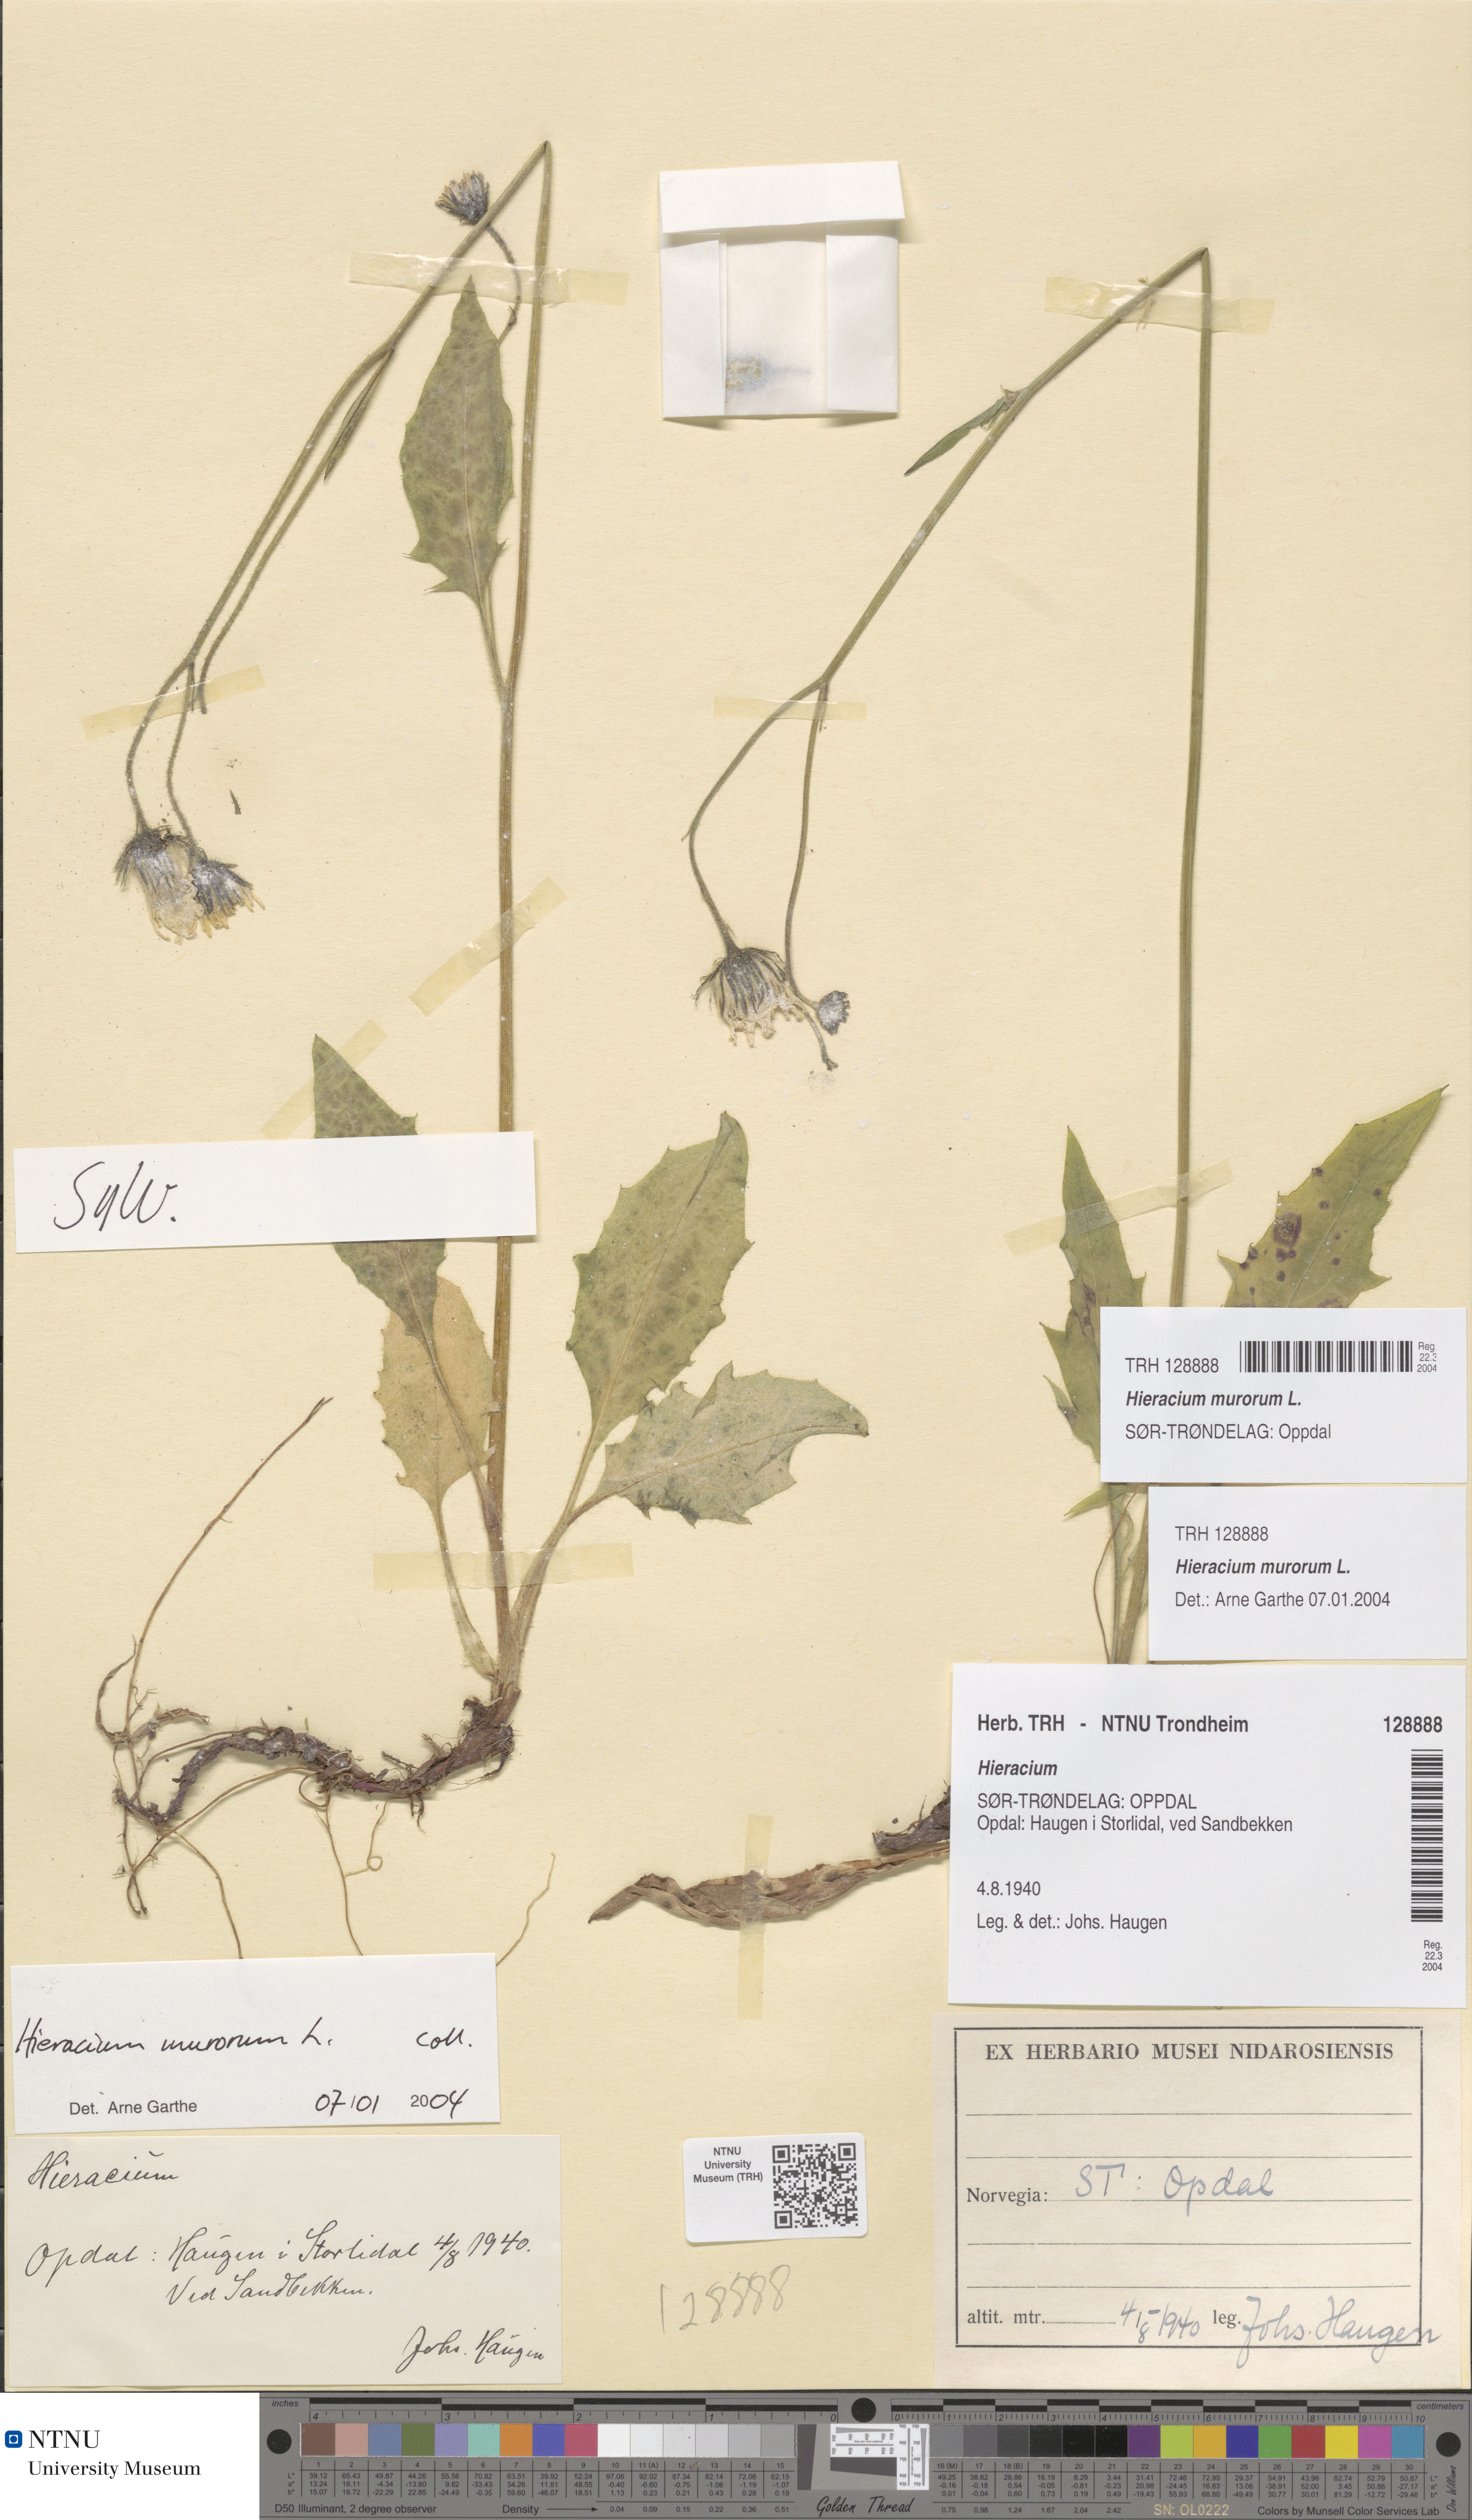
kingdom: Plantae
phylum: Tracheophyta
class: Magnoliopsida
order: Asterales
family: Asteraceae
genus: Hieracium
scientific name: Hieracium murorum
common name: Wall hawkweed
